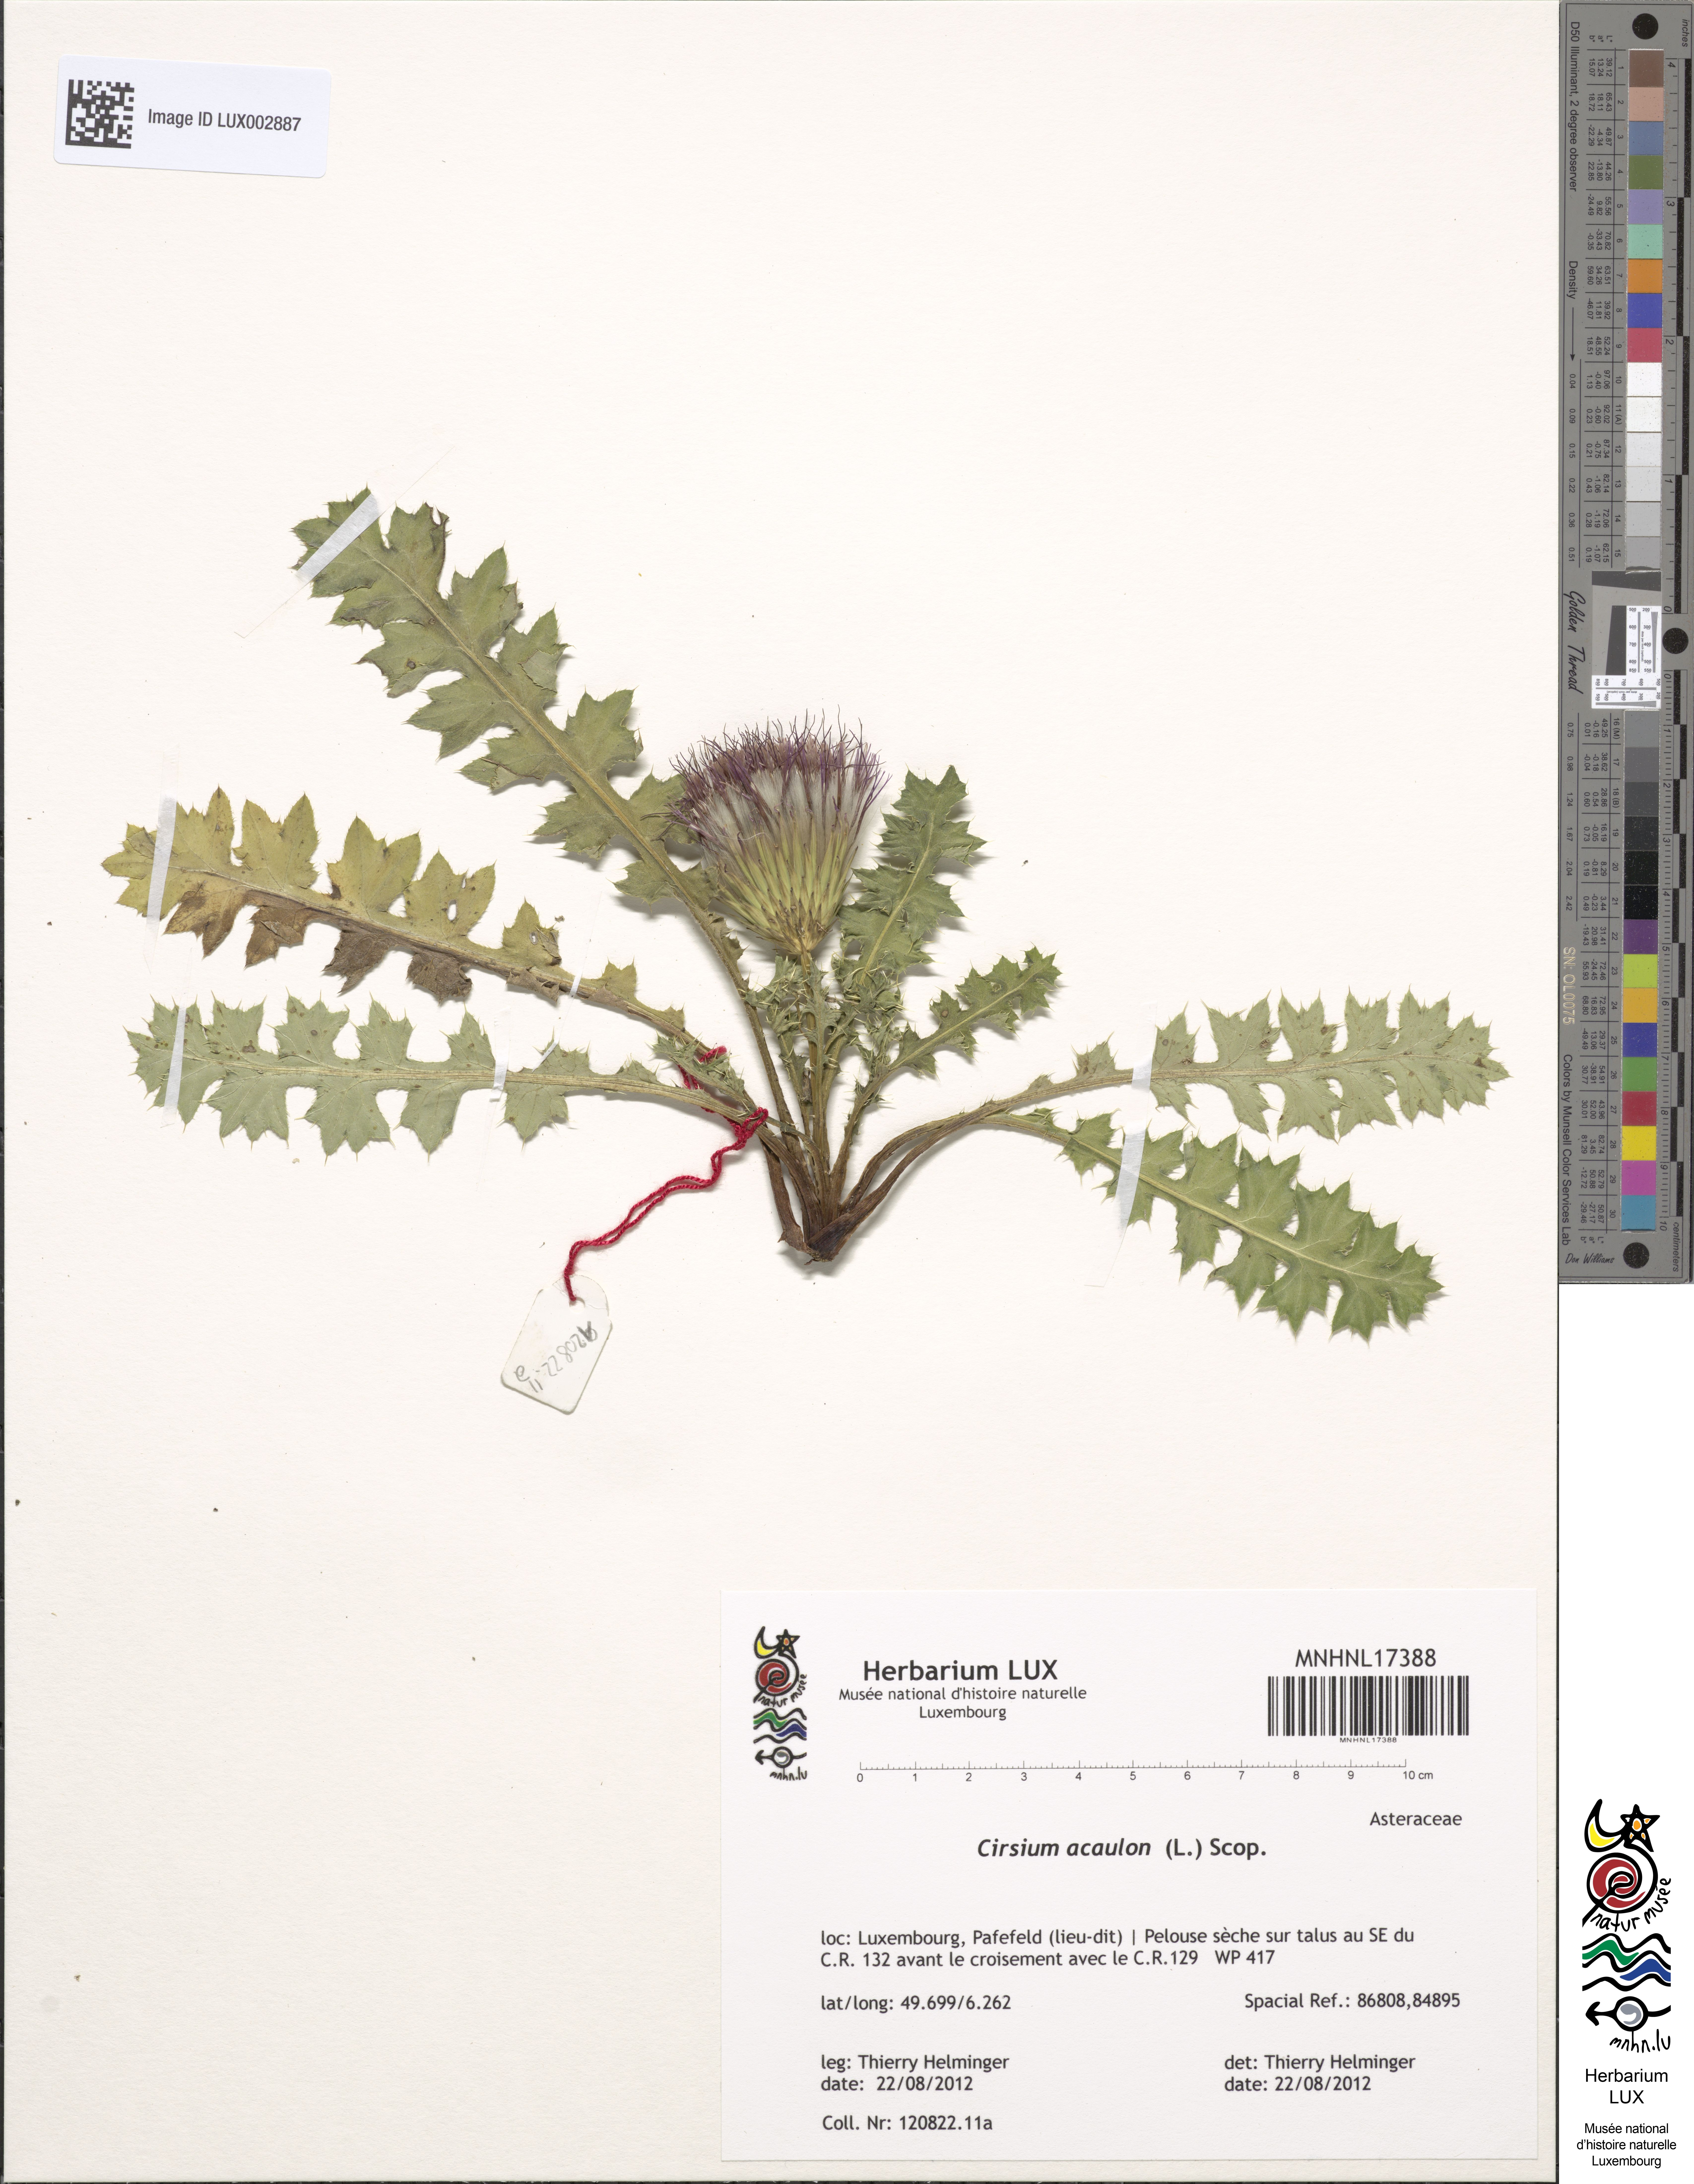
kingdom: Plantae
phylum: Tracheophyta
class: Magnoliopsida
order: Asterales
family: Asteraceae
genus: Cirsium
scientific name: Cirsium acaulon
